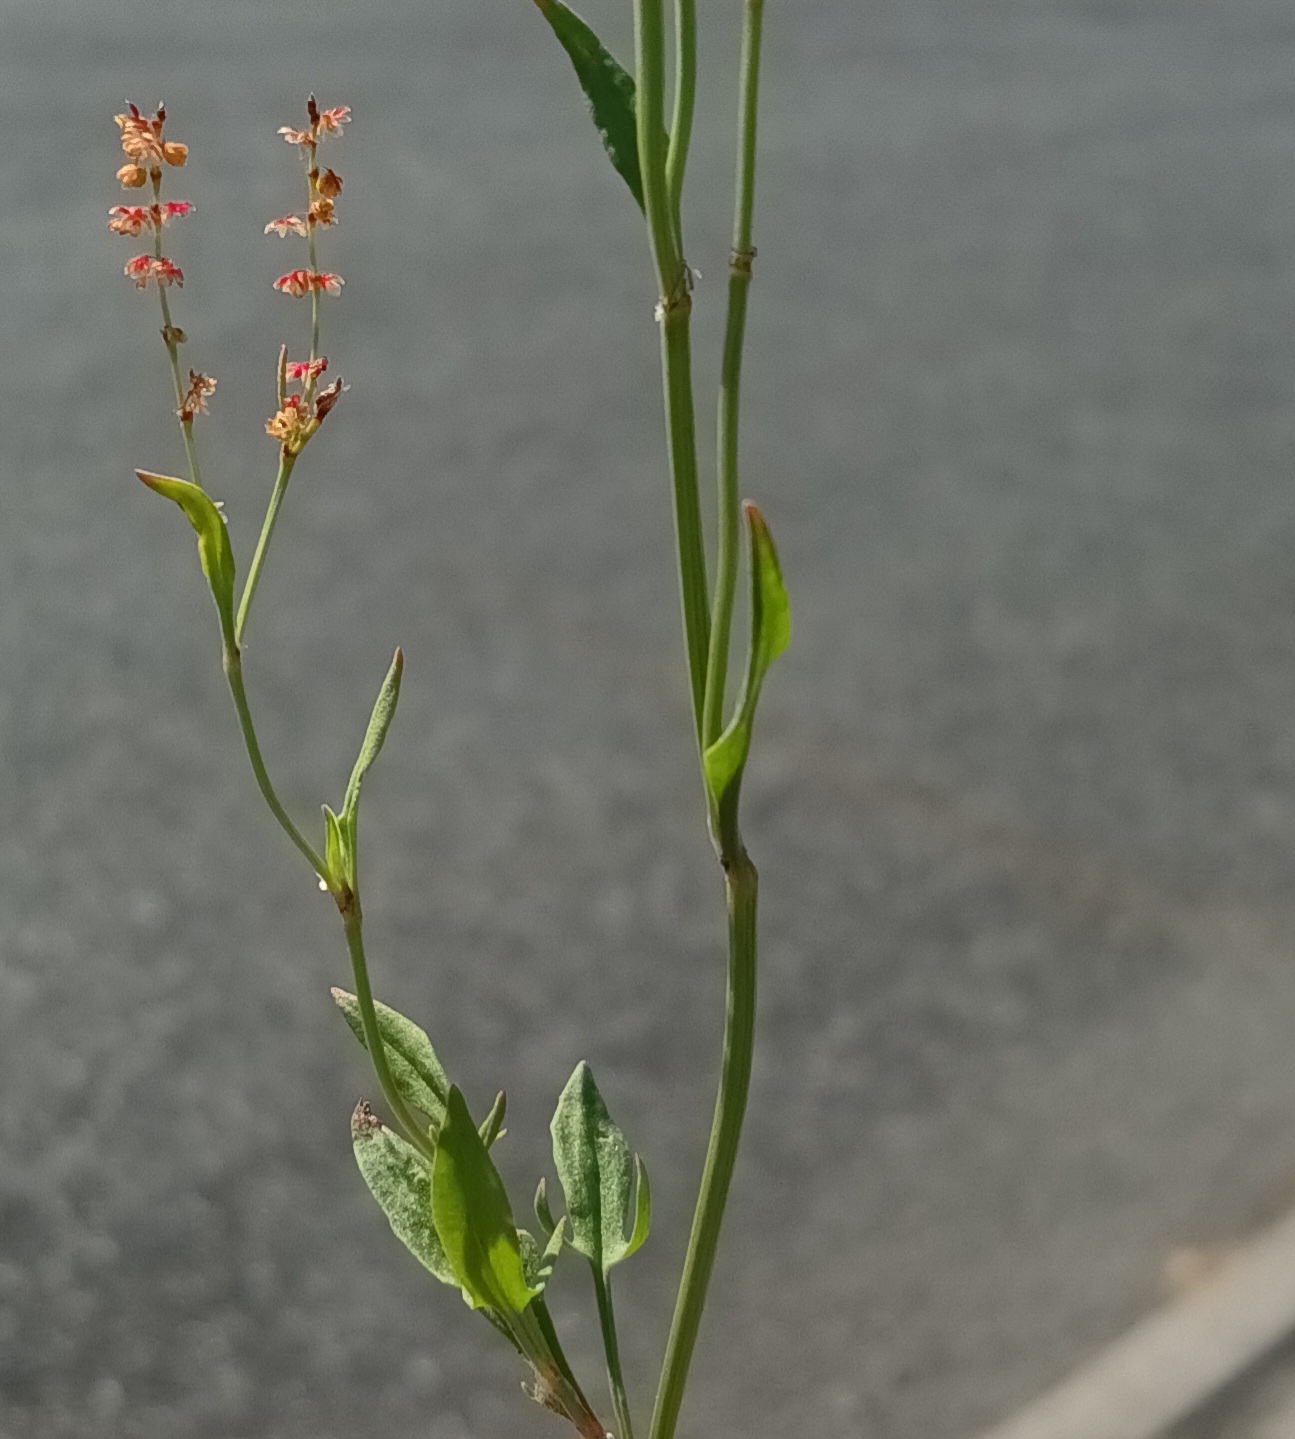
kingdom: Plantae
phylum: Tracheophyta
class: Magnoliopsida
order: Caryophyllales
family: Polygonaceae
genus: Rumex
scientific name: Rumex acetosella
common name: Rødknæ
